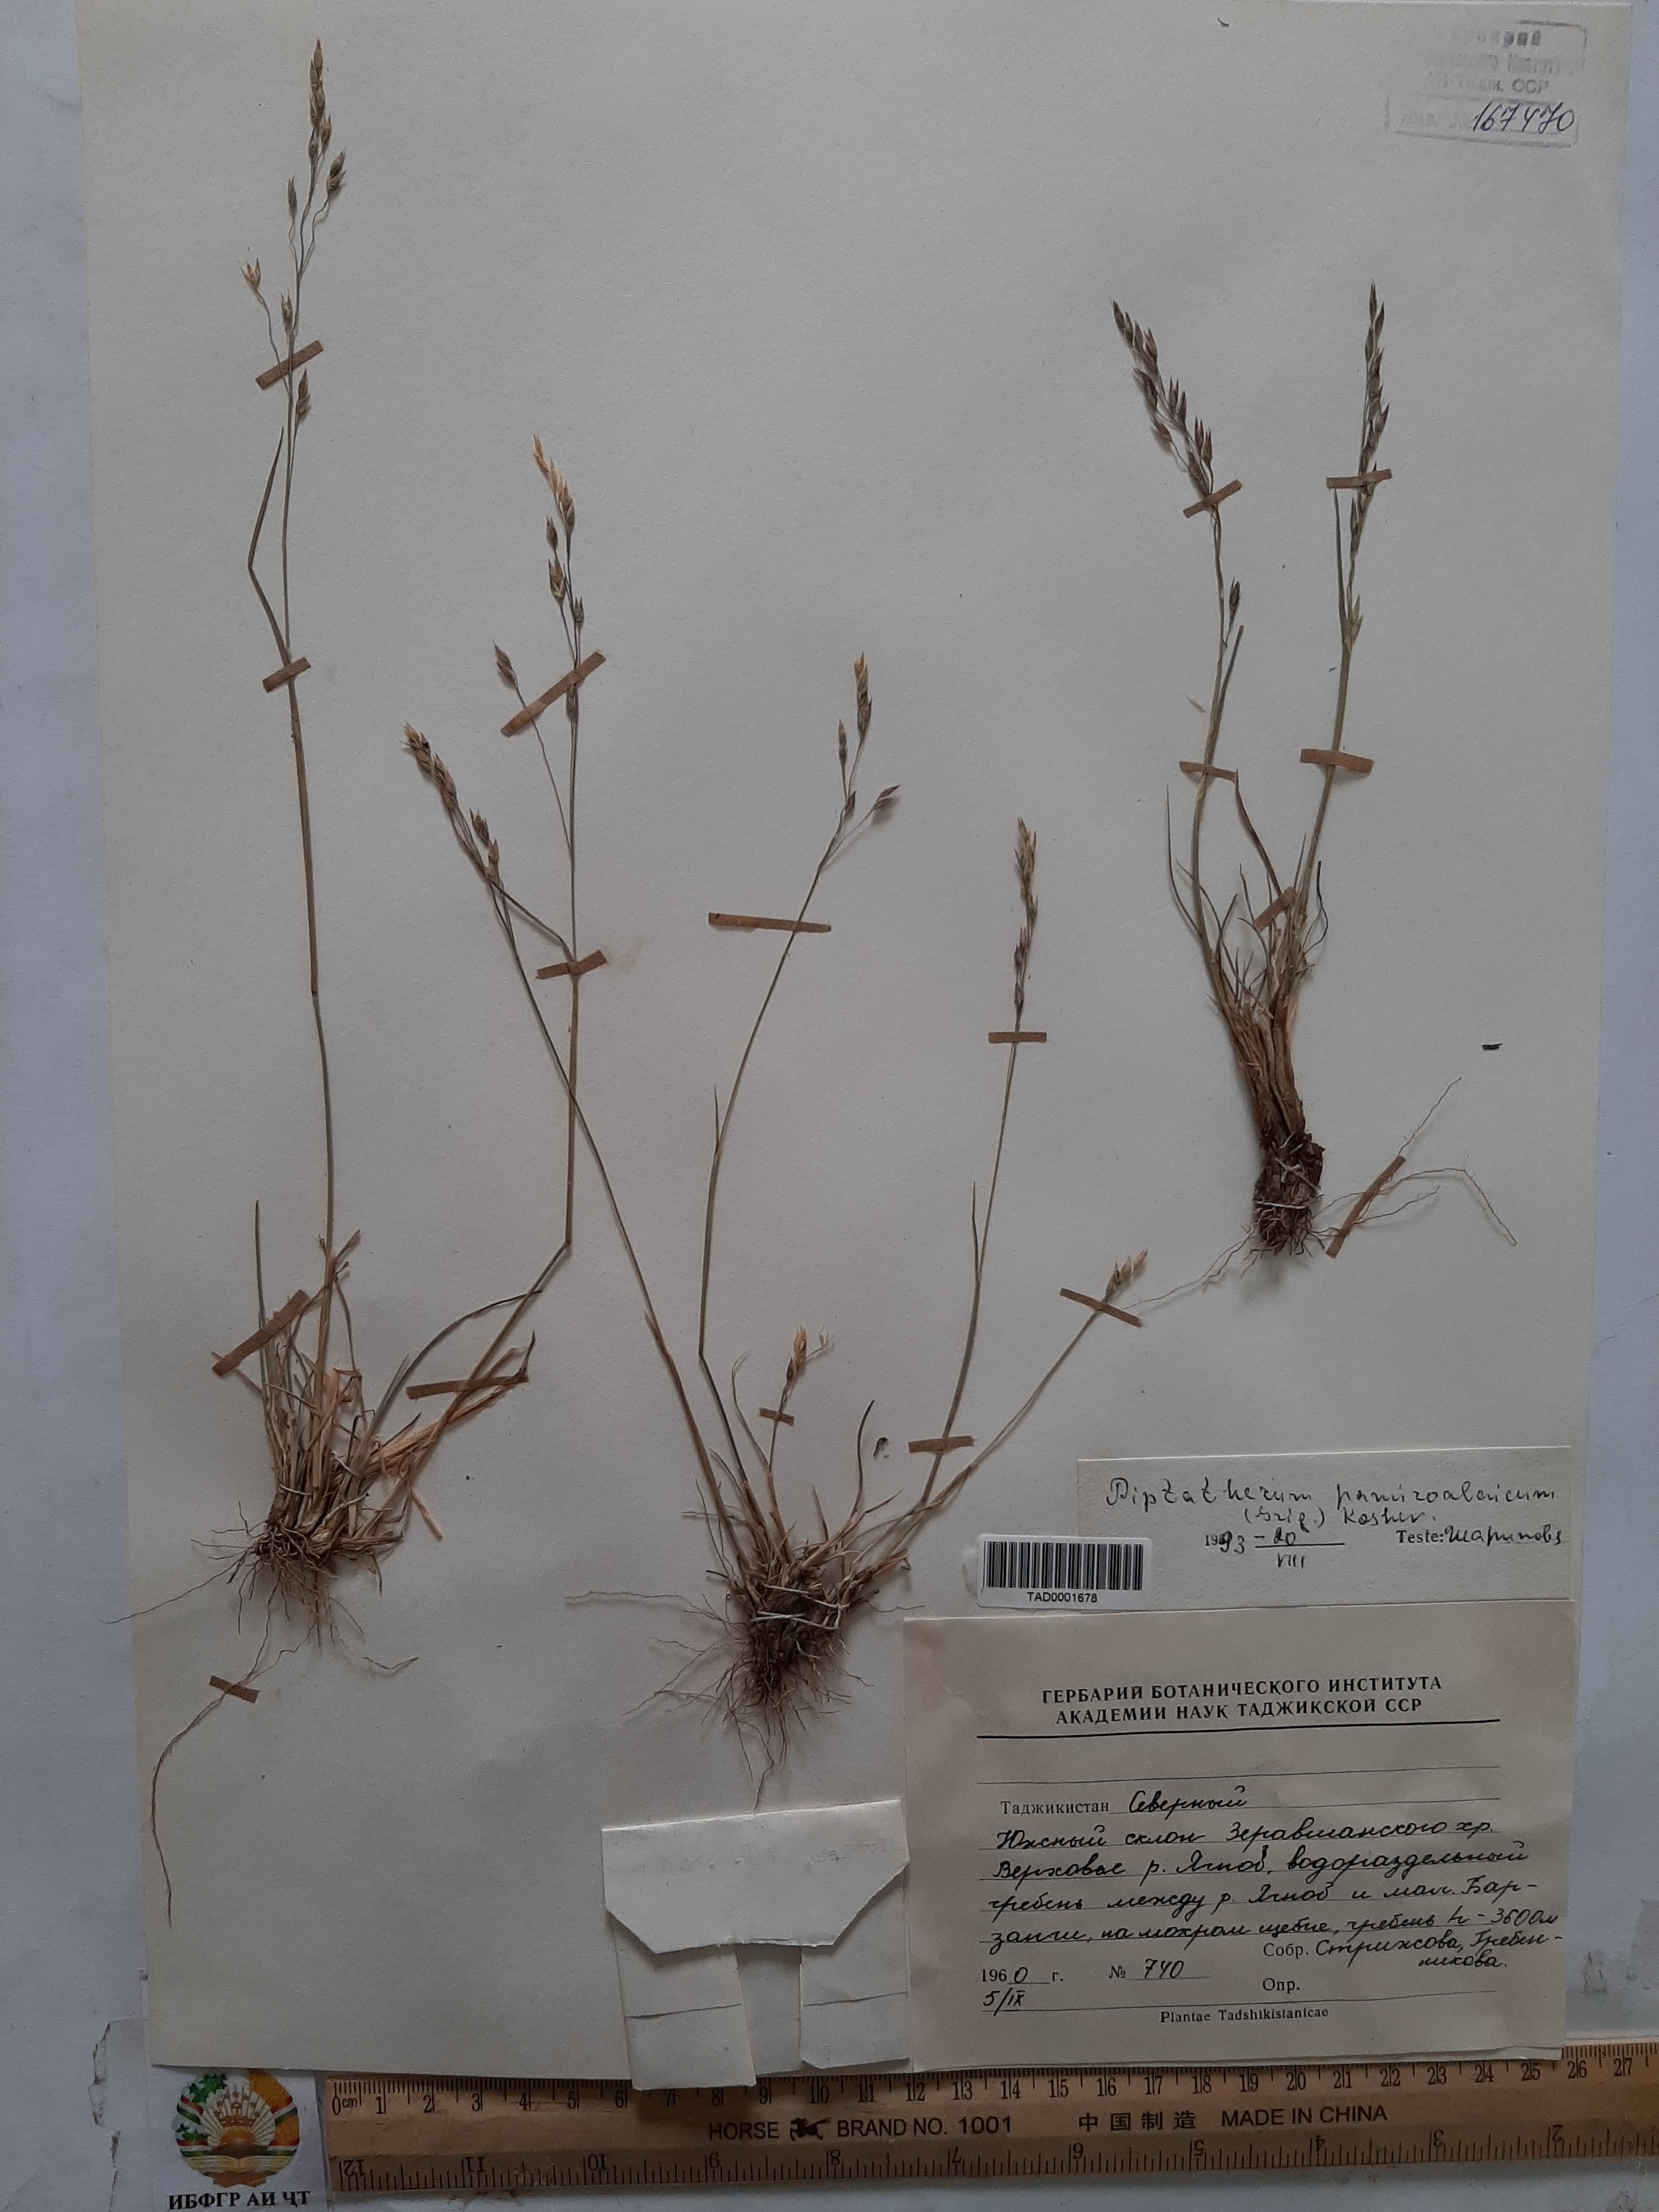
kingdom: Plantae
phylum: Tracheophyta
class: Liliopsida
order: Poales
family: Poaceae
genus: Piptatherum
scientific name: Piptatherum pamiralaicum
